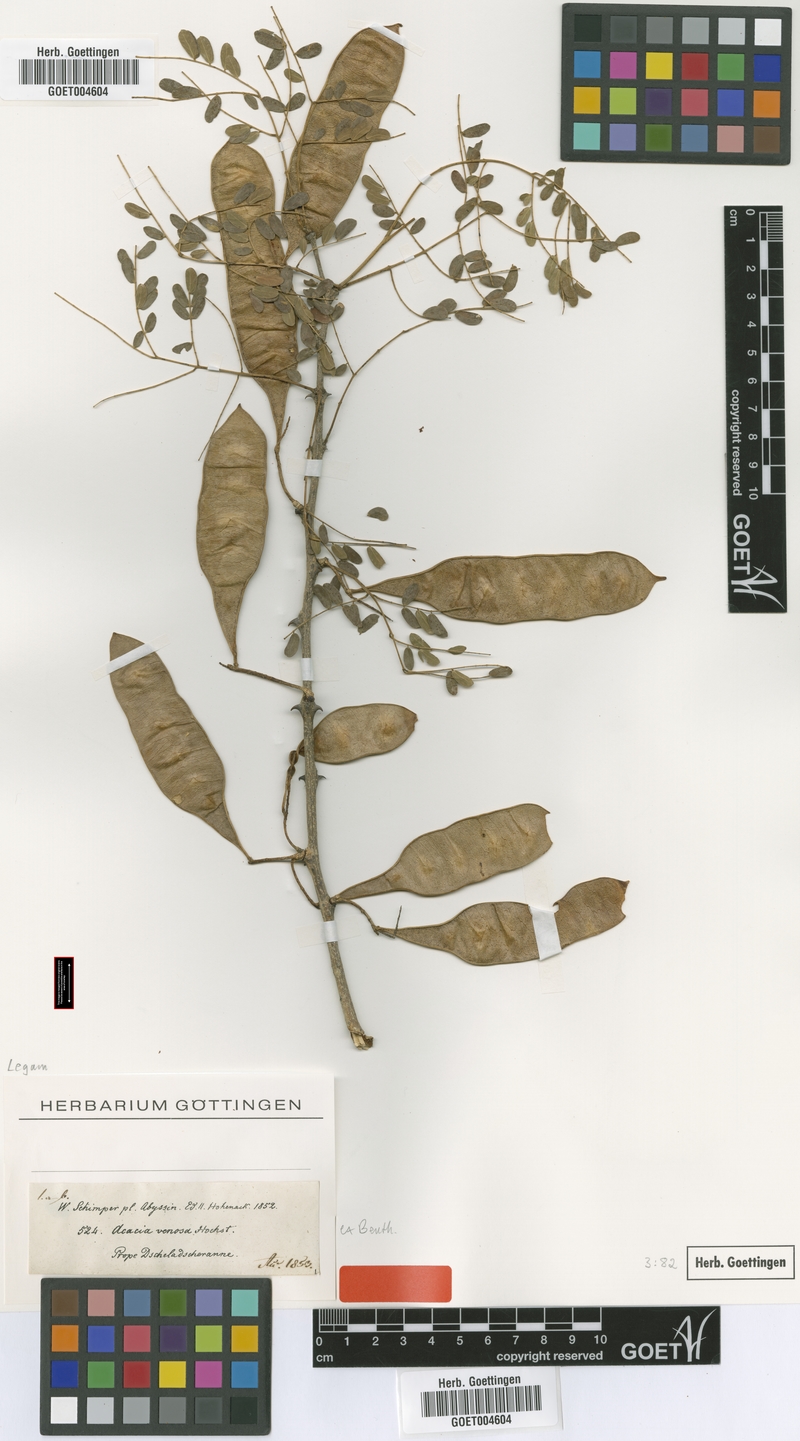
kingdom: Plantae
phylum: Tracheophyta
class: Magnoliopsida
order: Fabales
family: Fabaceae
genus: Senegalia
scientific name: Senegalia venosa
